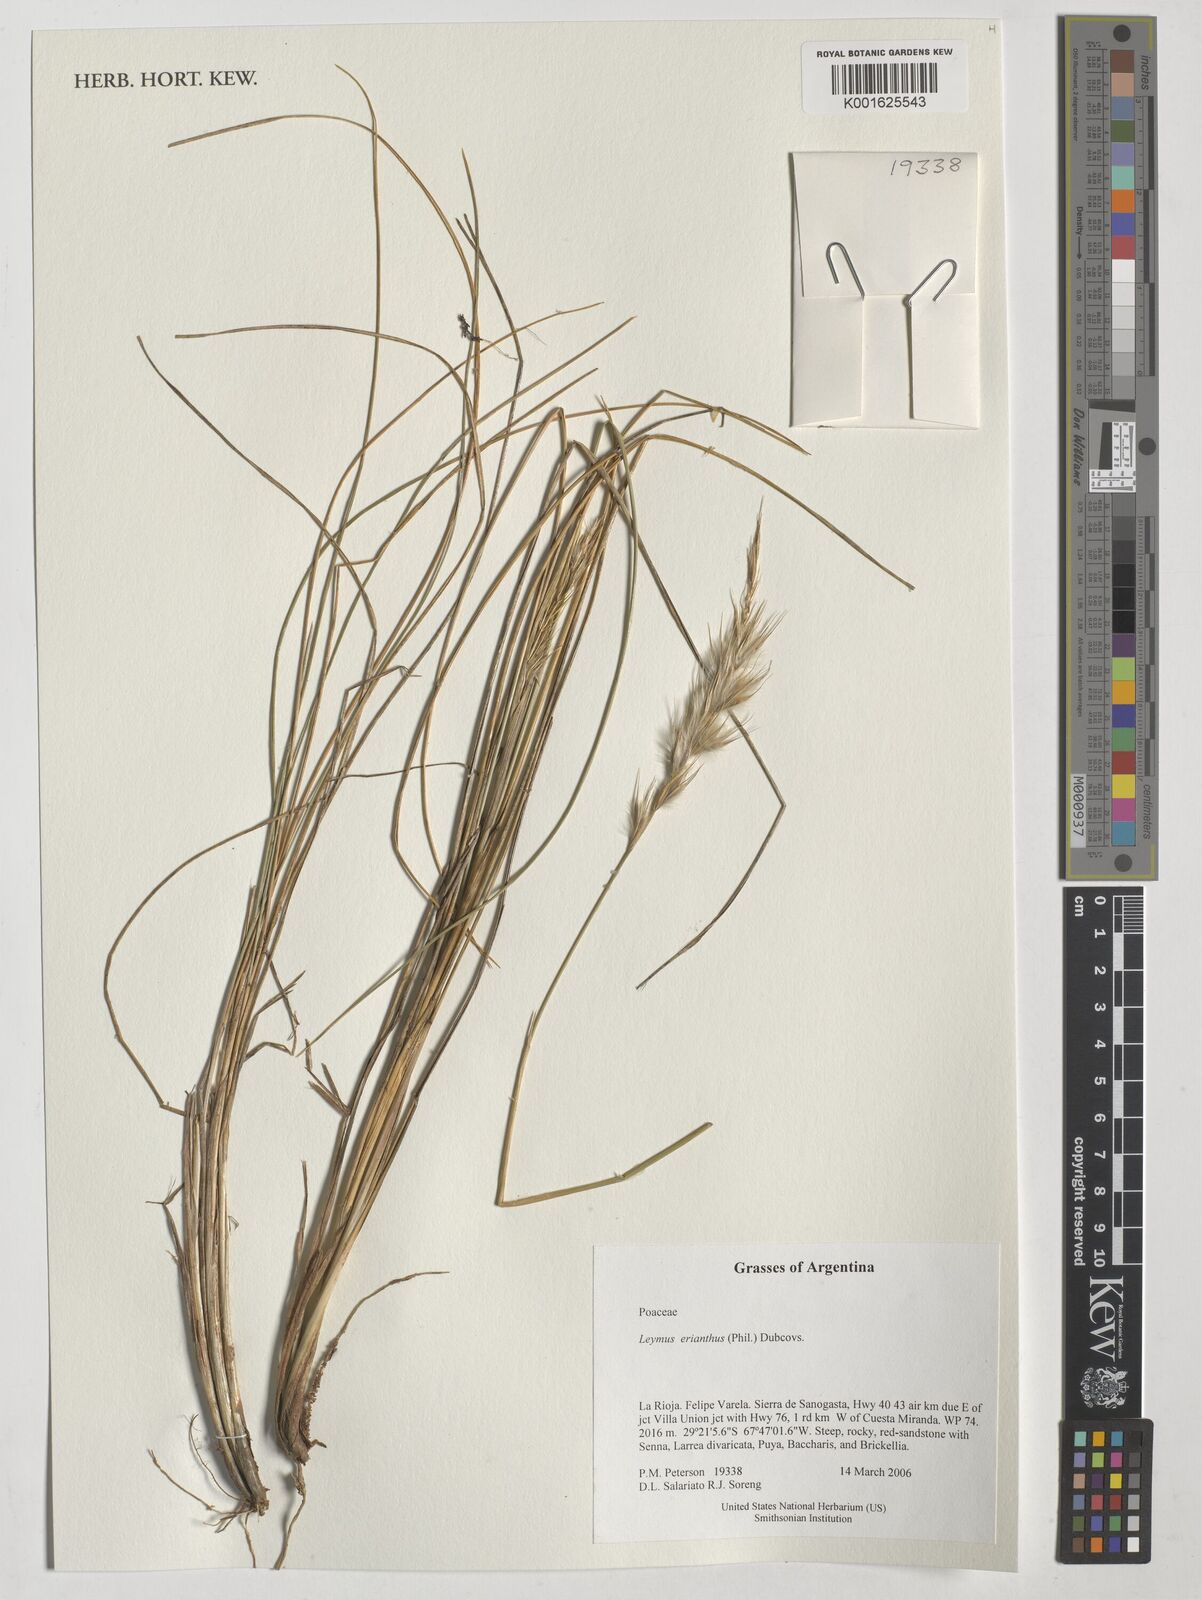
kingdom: Plantae
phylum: Tracheophyta
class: Liliopsida
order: Poales
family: Poaceae
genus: Leymus
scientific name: Leymus erianthus
